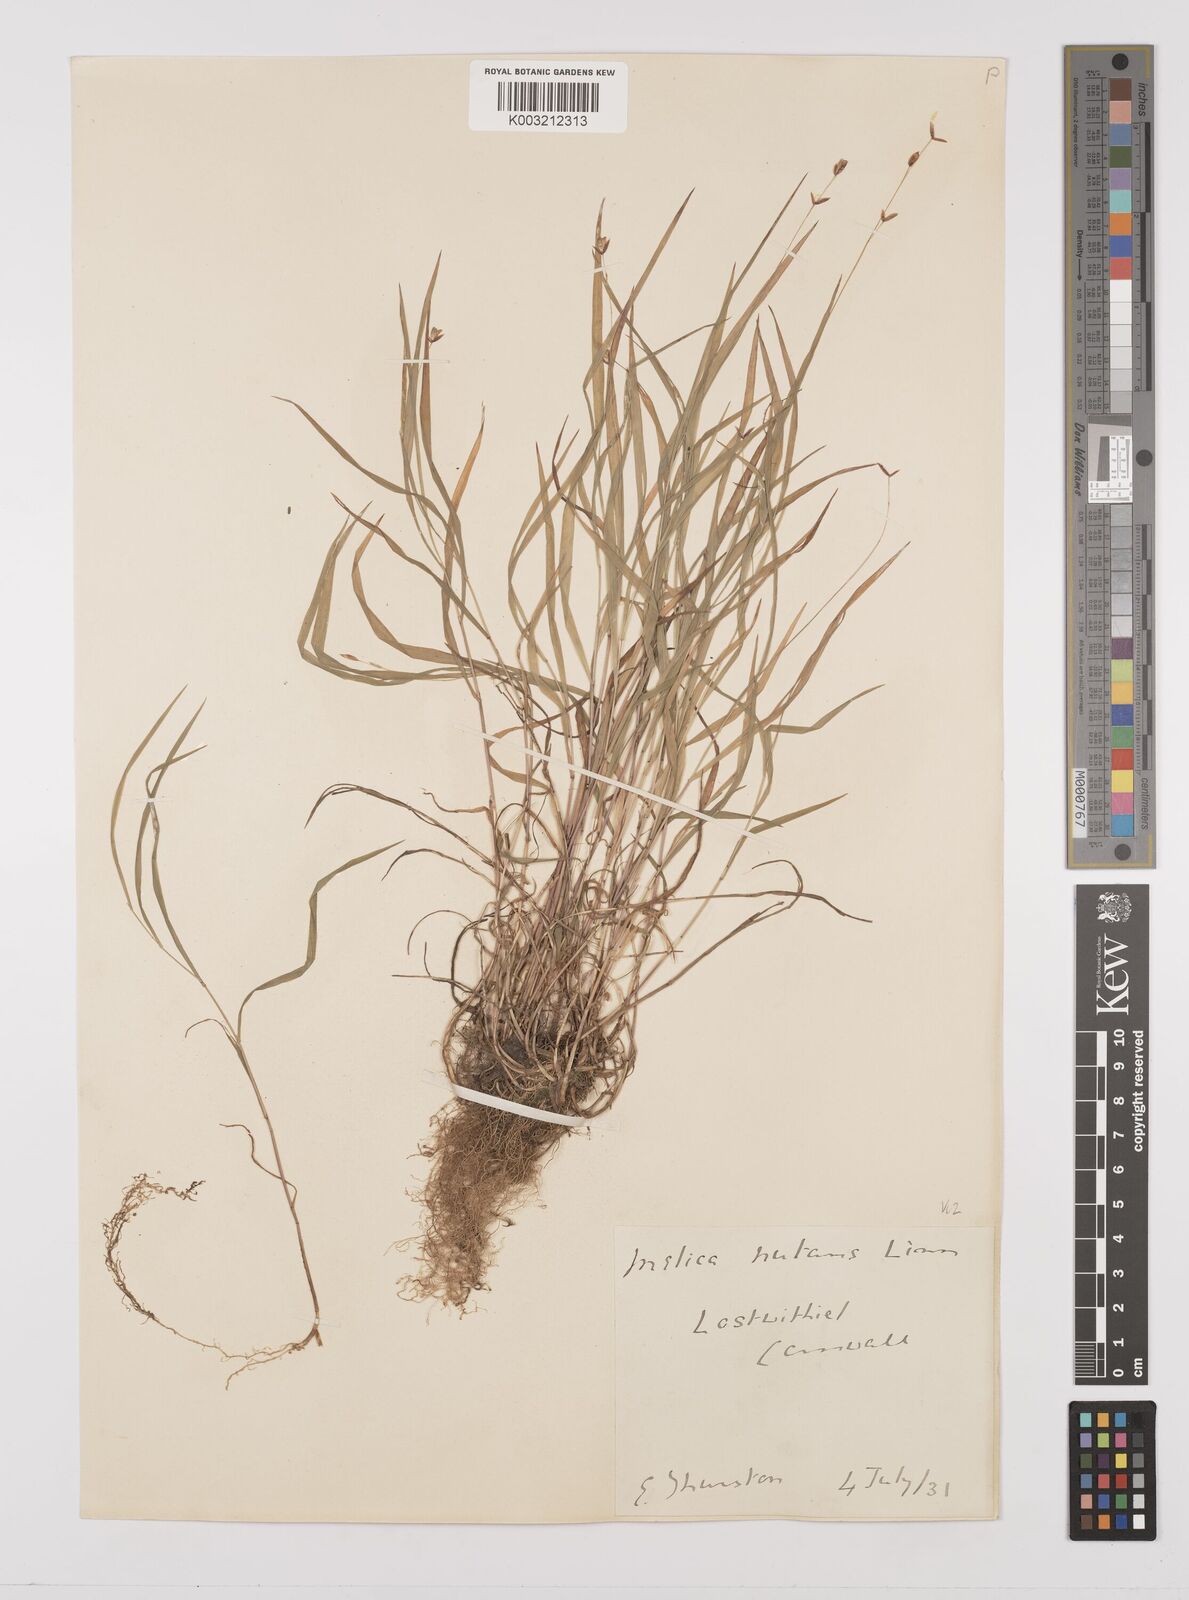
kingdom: Plantae
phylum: Tracheophyta
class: Liliopsida
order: Poales
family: Poaceae
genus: Melica
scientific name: Melica uniflora
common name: Wood melick
